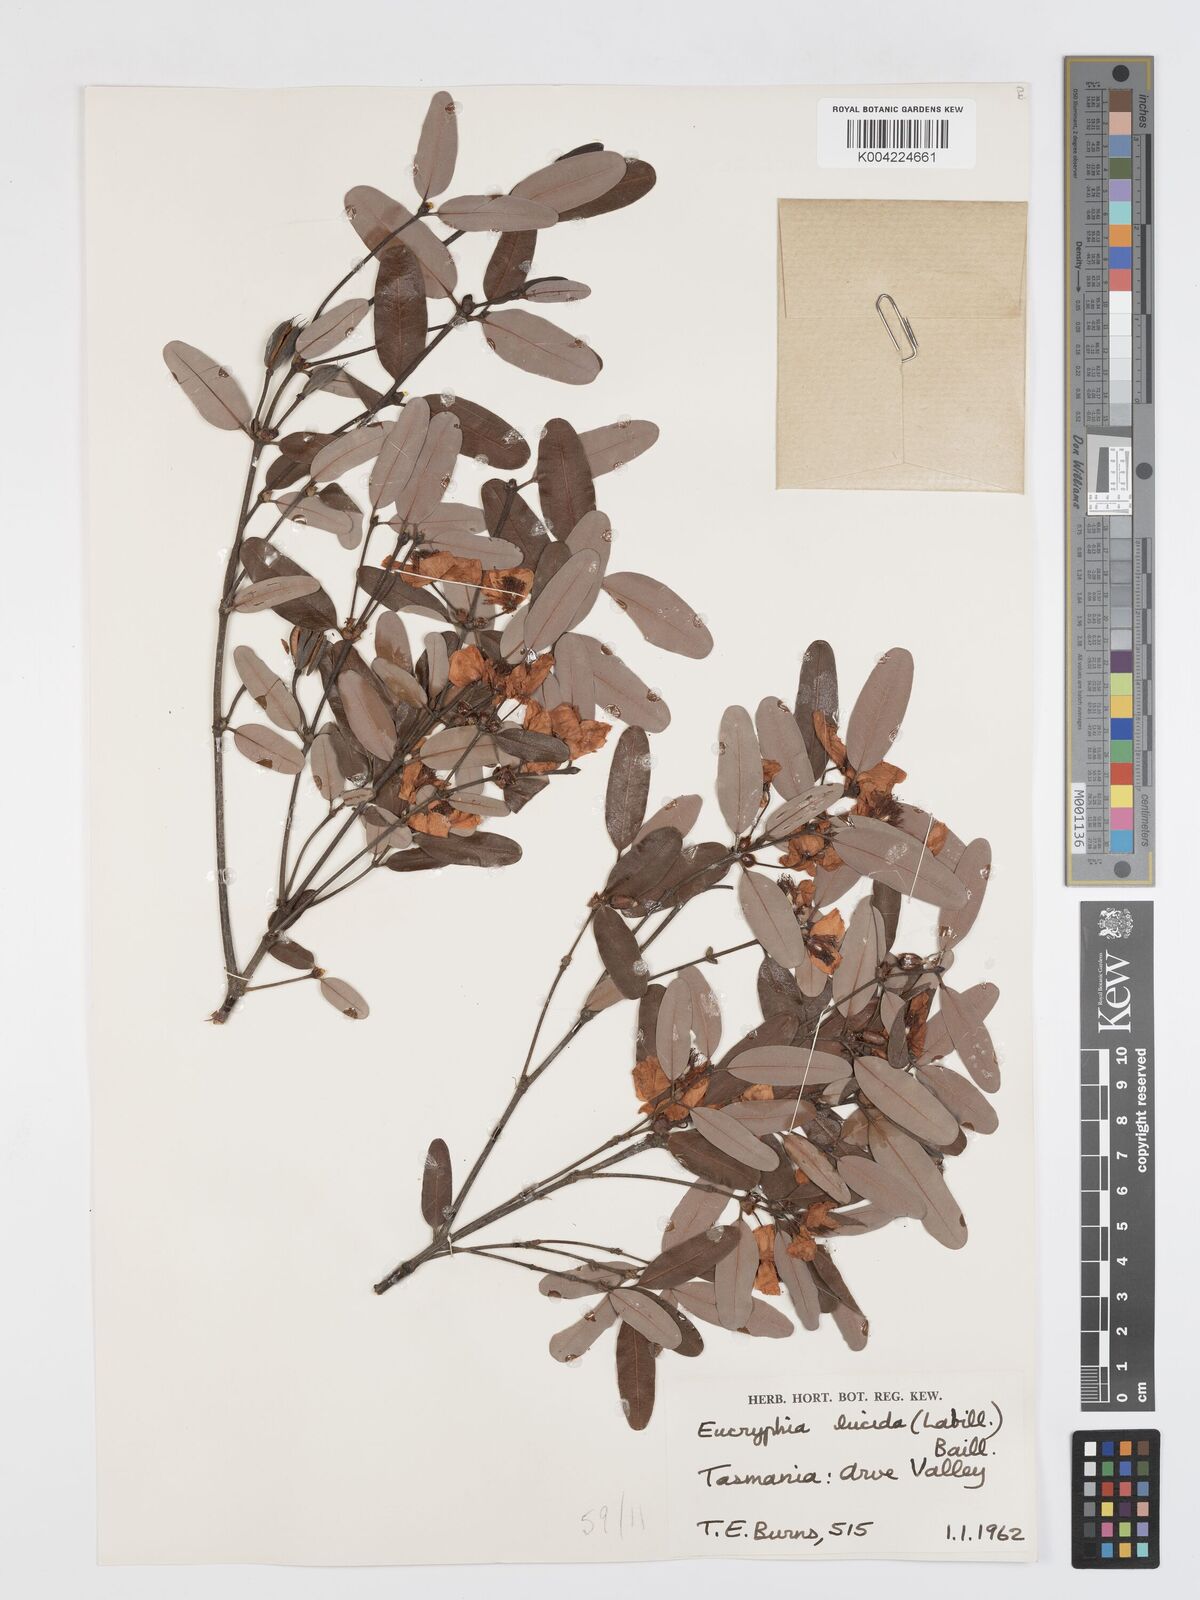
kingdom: Plantae
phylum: Tracheophyta
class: Magnoliopsida
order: Oxalidales
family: Cunoniaceae
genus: Eucryphia
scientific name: Eucryphia lucida
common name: Leatherwood
